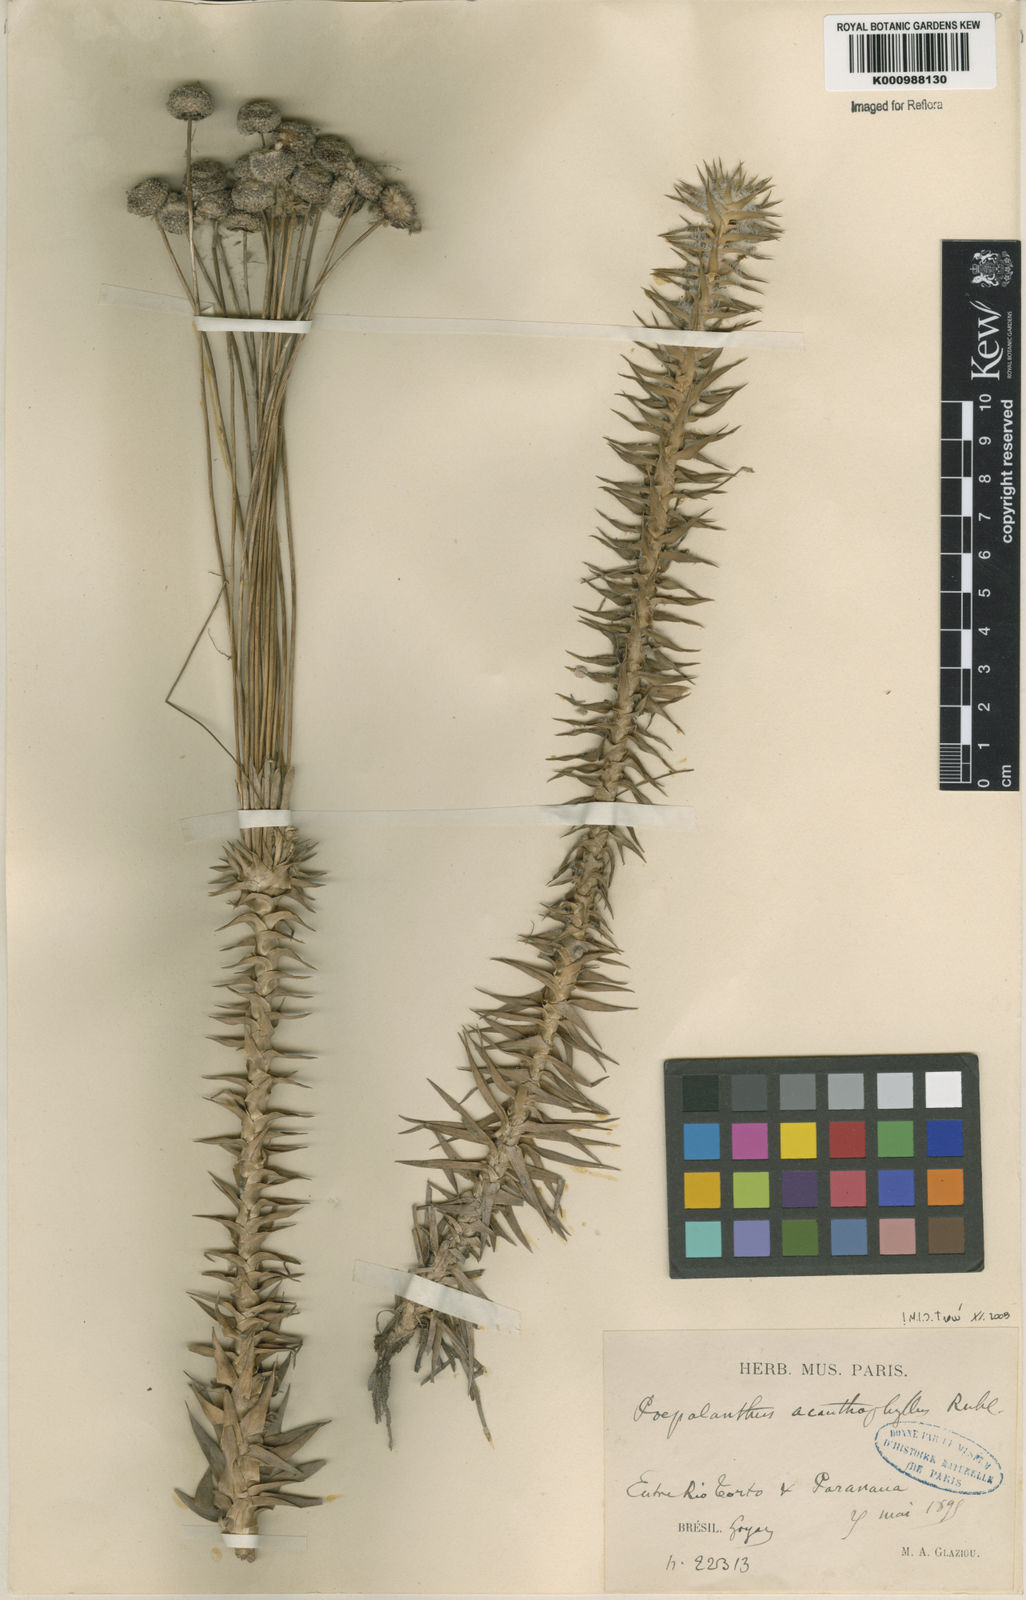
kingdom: Plantae
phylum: Tracheophyta
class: Liliopsida
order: Poales
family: Eriocaulaceae
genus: Paepalanthus
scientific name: Paepalanthus acanthophyllus
